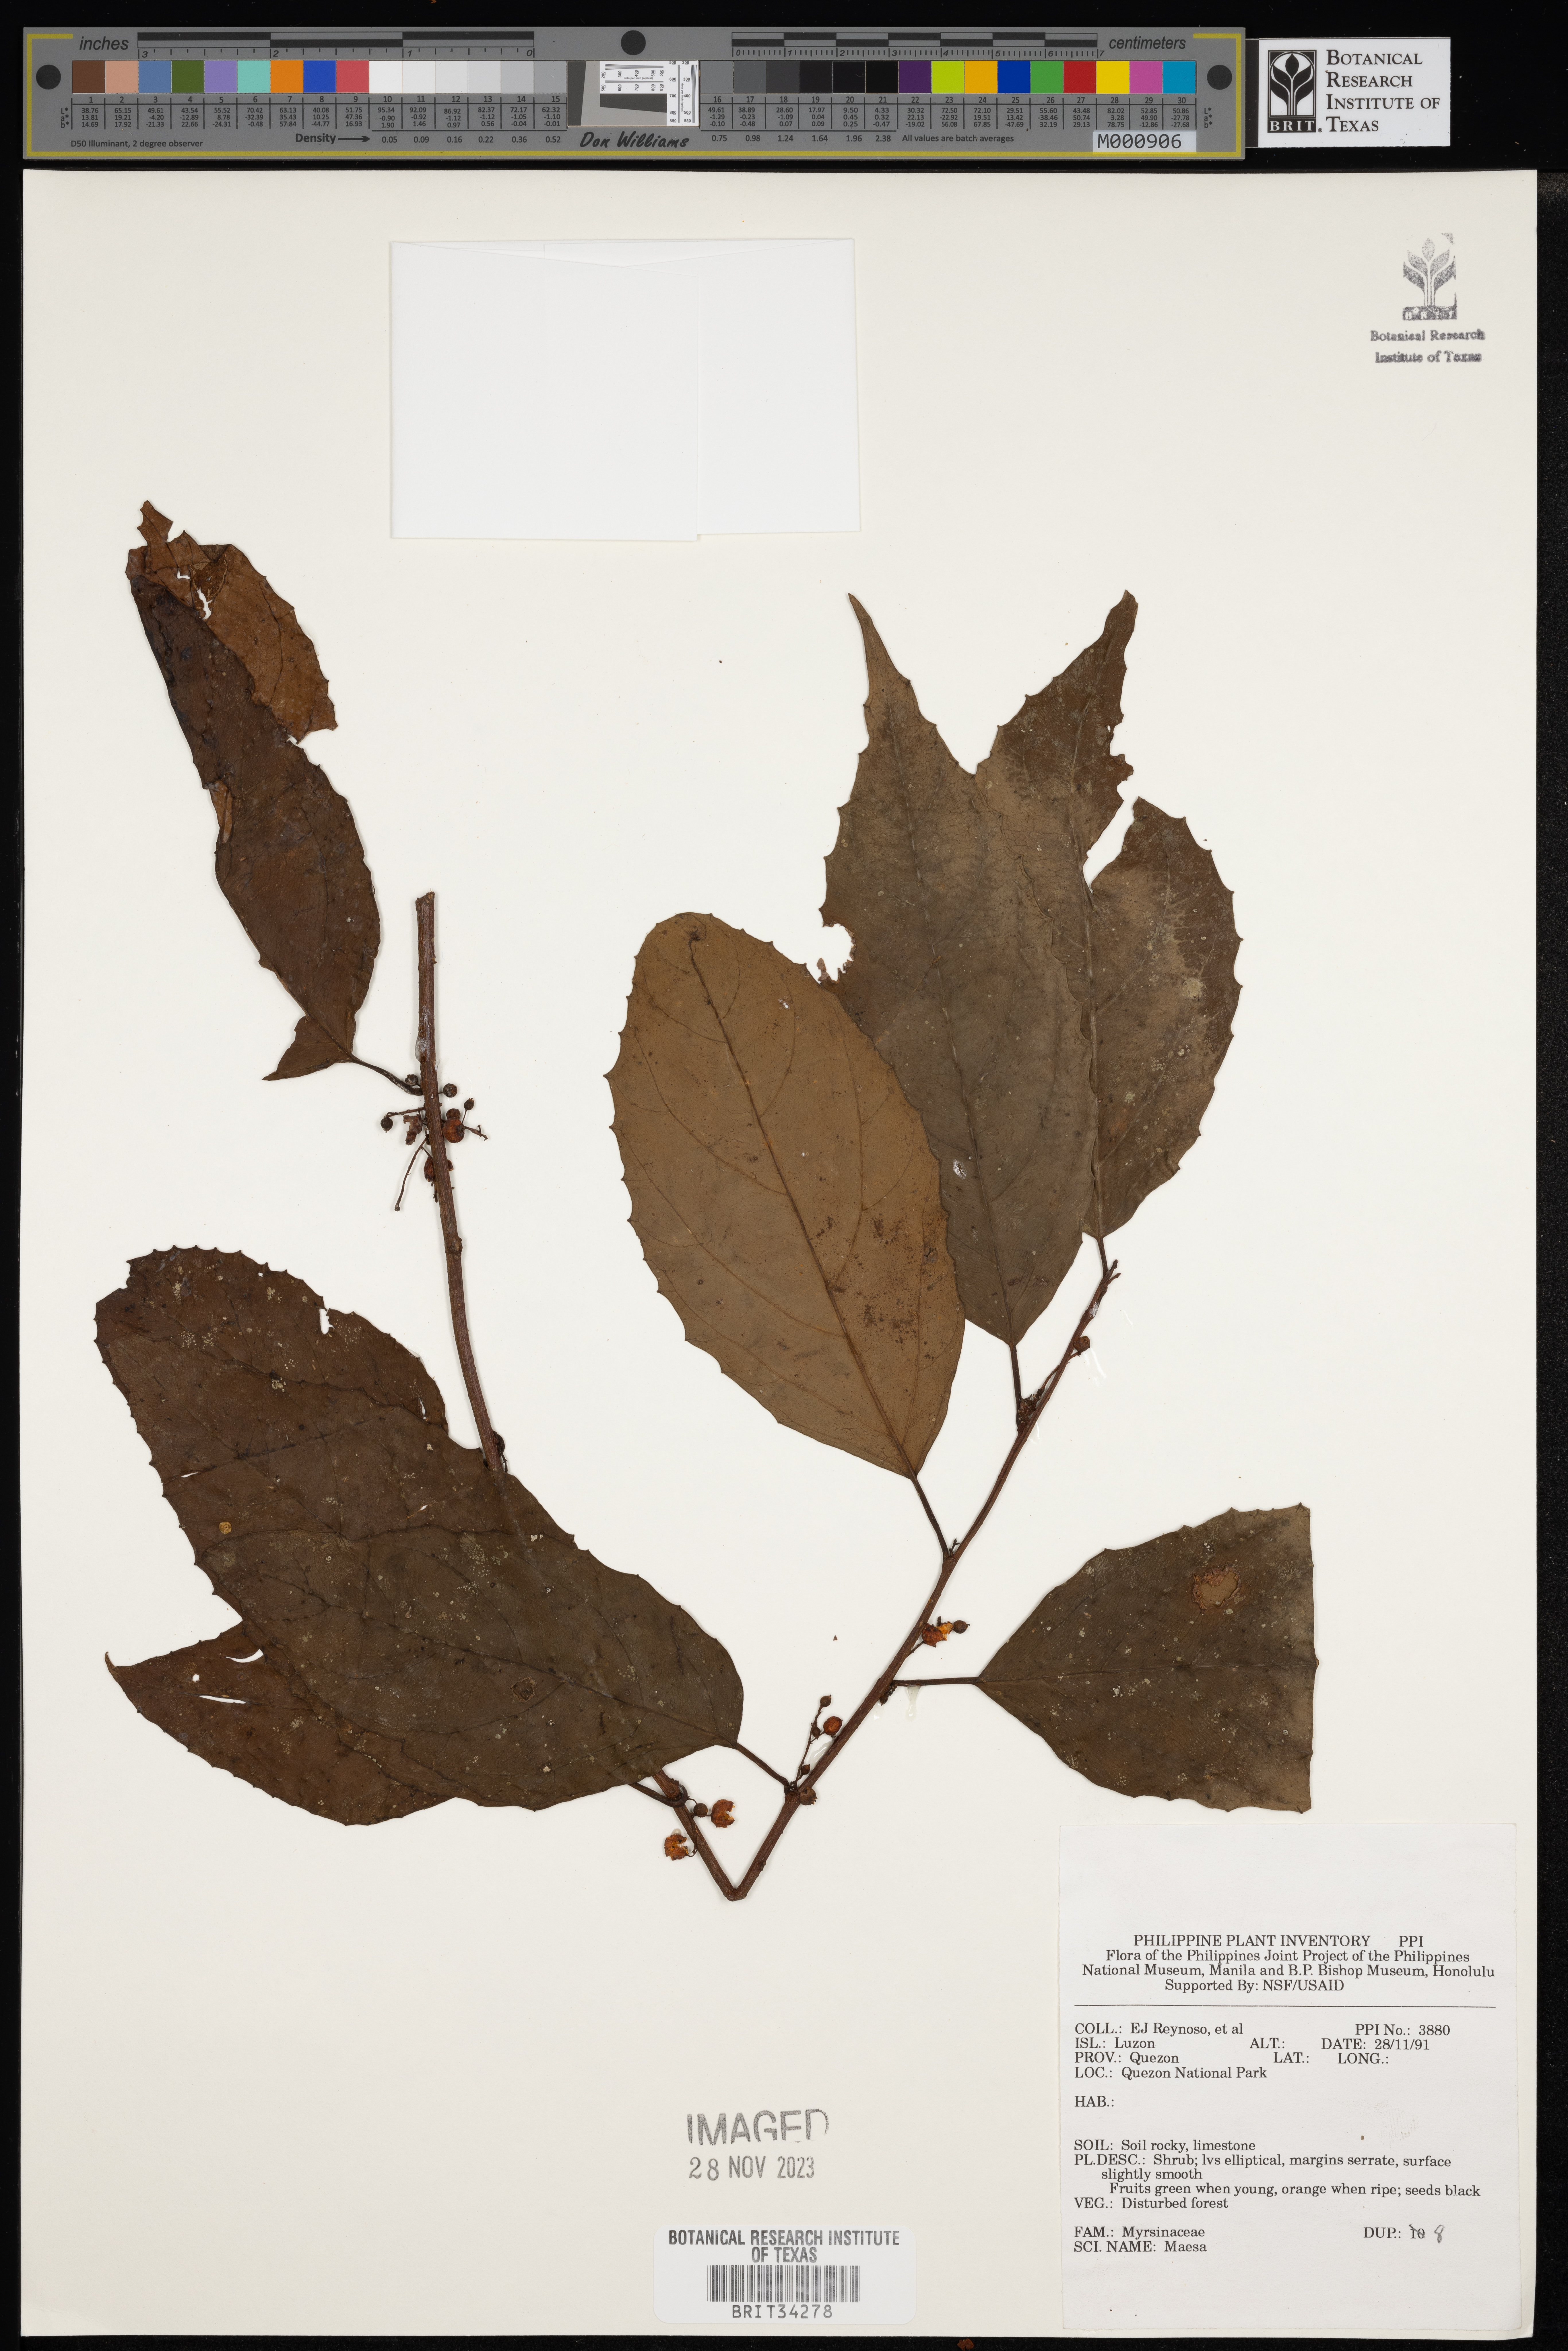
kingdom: Plantae
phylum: Tracheophyta
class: Magnoliopsida
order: Ericales
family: Primulaceae
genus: Maesa
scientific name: Maesa
